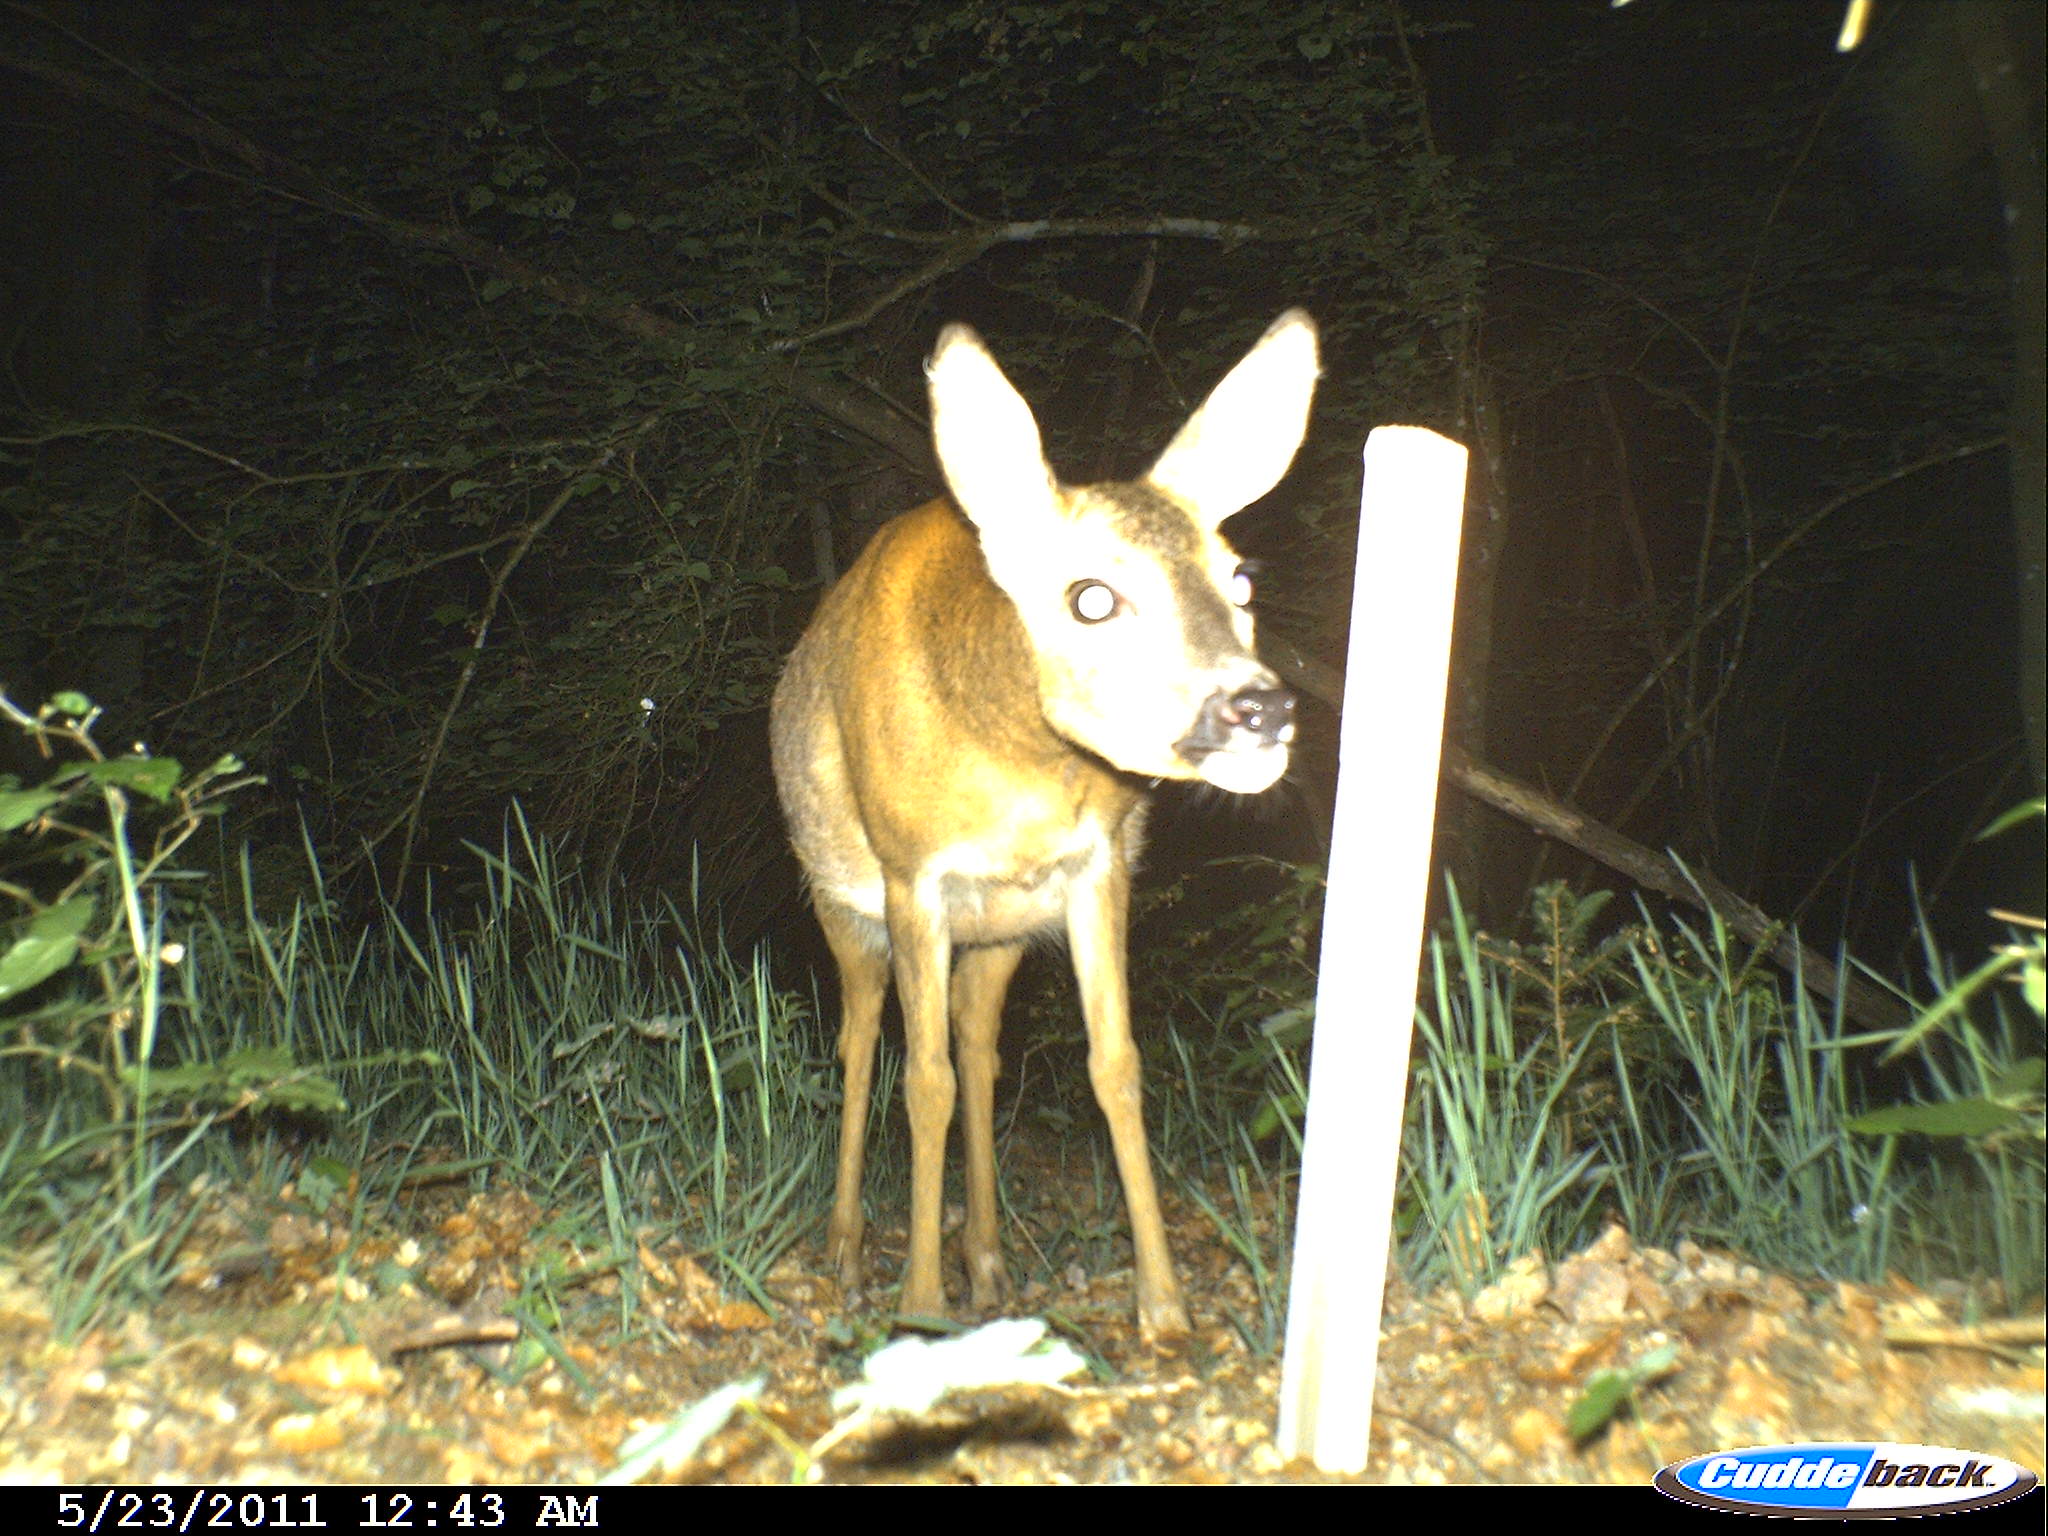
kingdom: Animalia
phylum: Chordata
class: Mammalia
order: Artiodactyla
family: Cervidae
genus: Capreolus
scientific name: Capreolus capreolus
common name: Western roe deer
